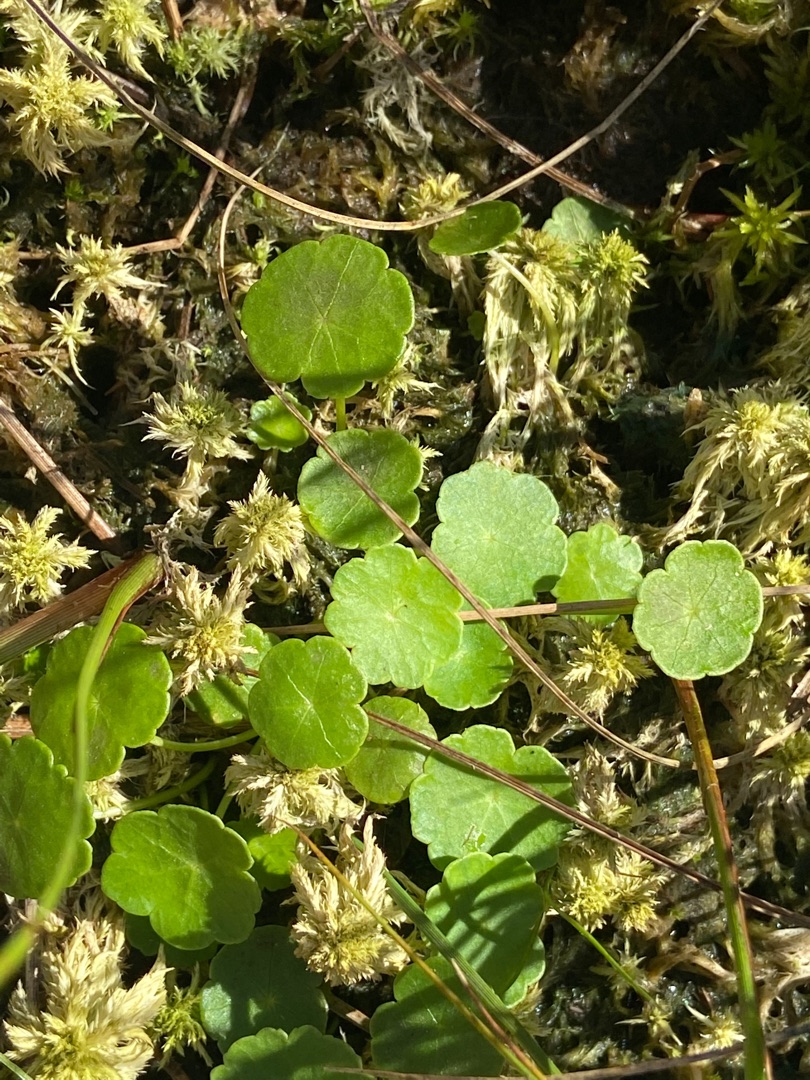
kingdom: Plantae
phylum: Tracheophyta
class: Magnoliopsida
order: Apiales
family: Araliaceae
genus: Hydrocotyle
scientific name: Hydrocotyle vulgaris
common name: Vandnavle
